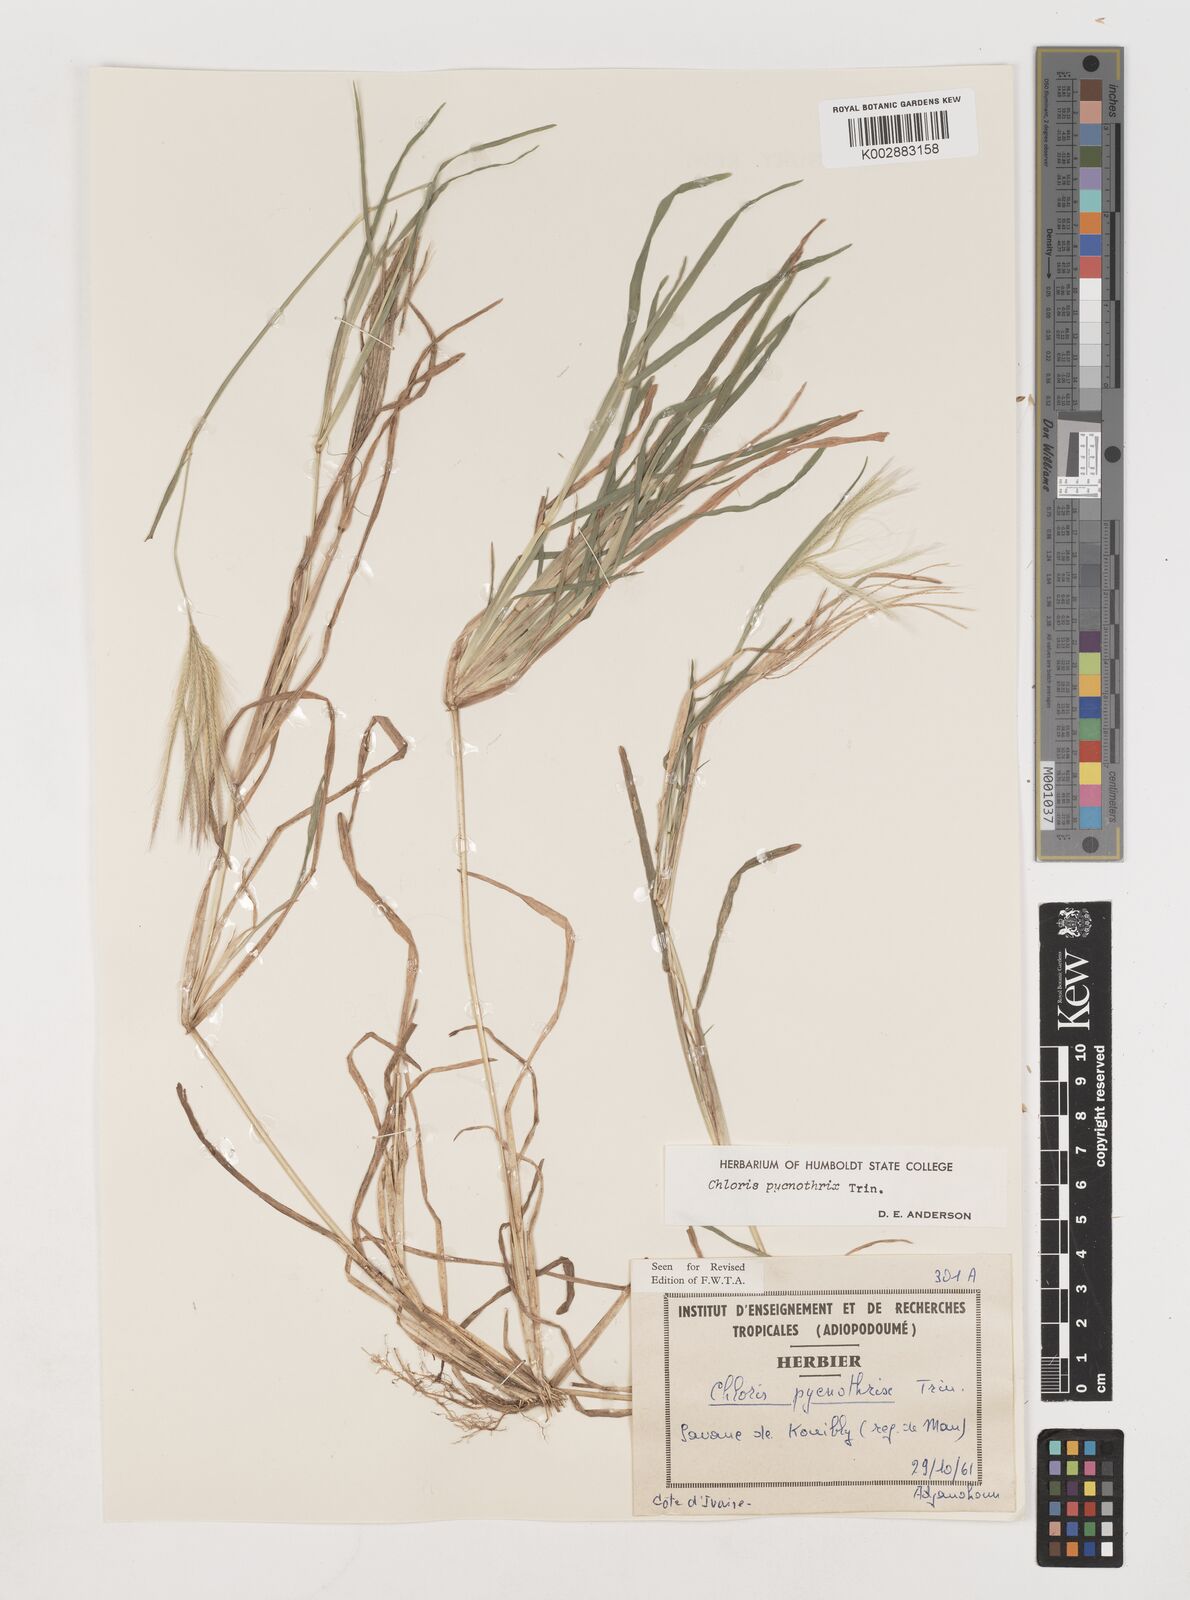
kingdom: Plantae
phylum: Tracheophyta
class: Liliopsida
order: Poales
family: Poaceae
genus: Chloris
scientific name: Chloris pycnothrix
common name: Spiderweb chloris
